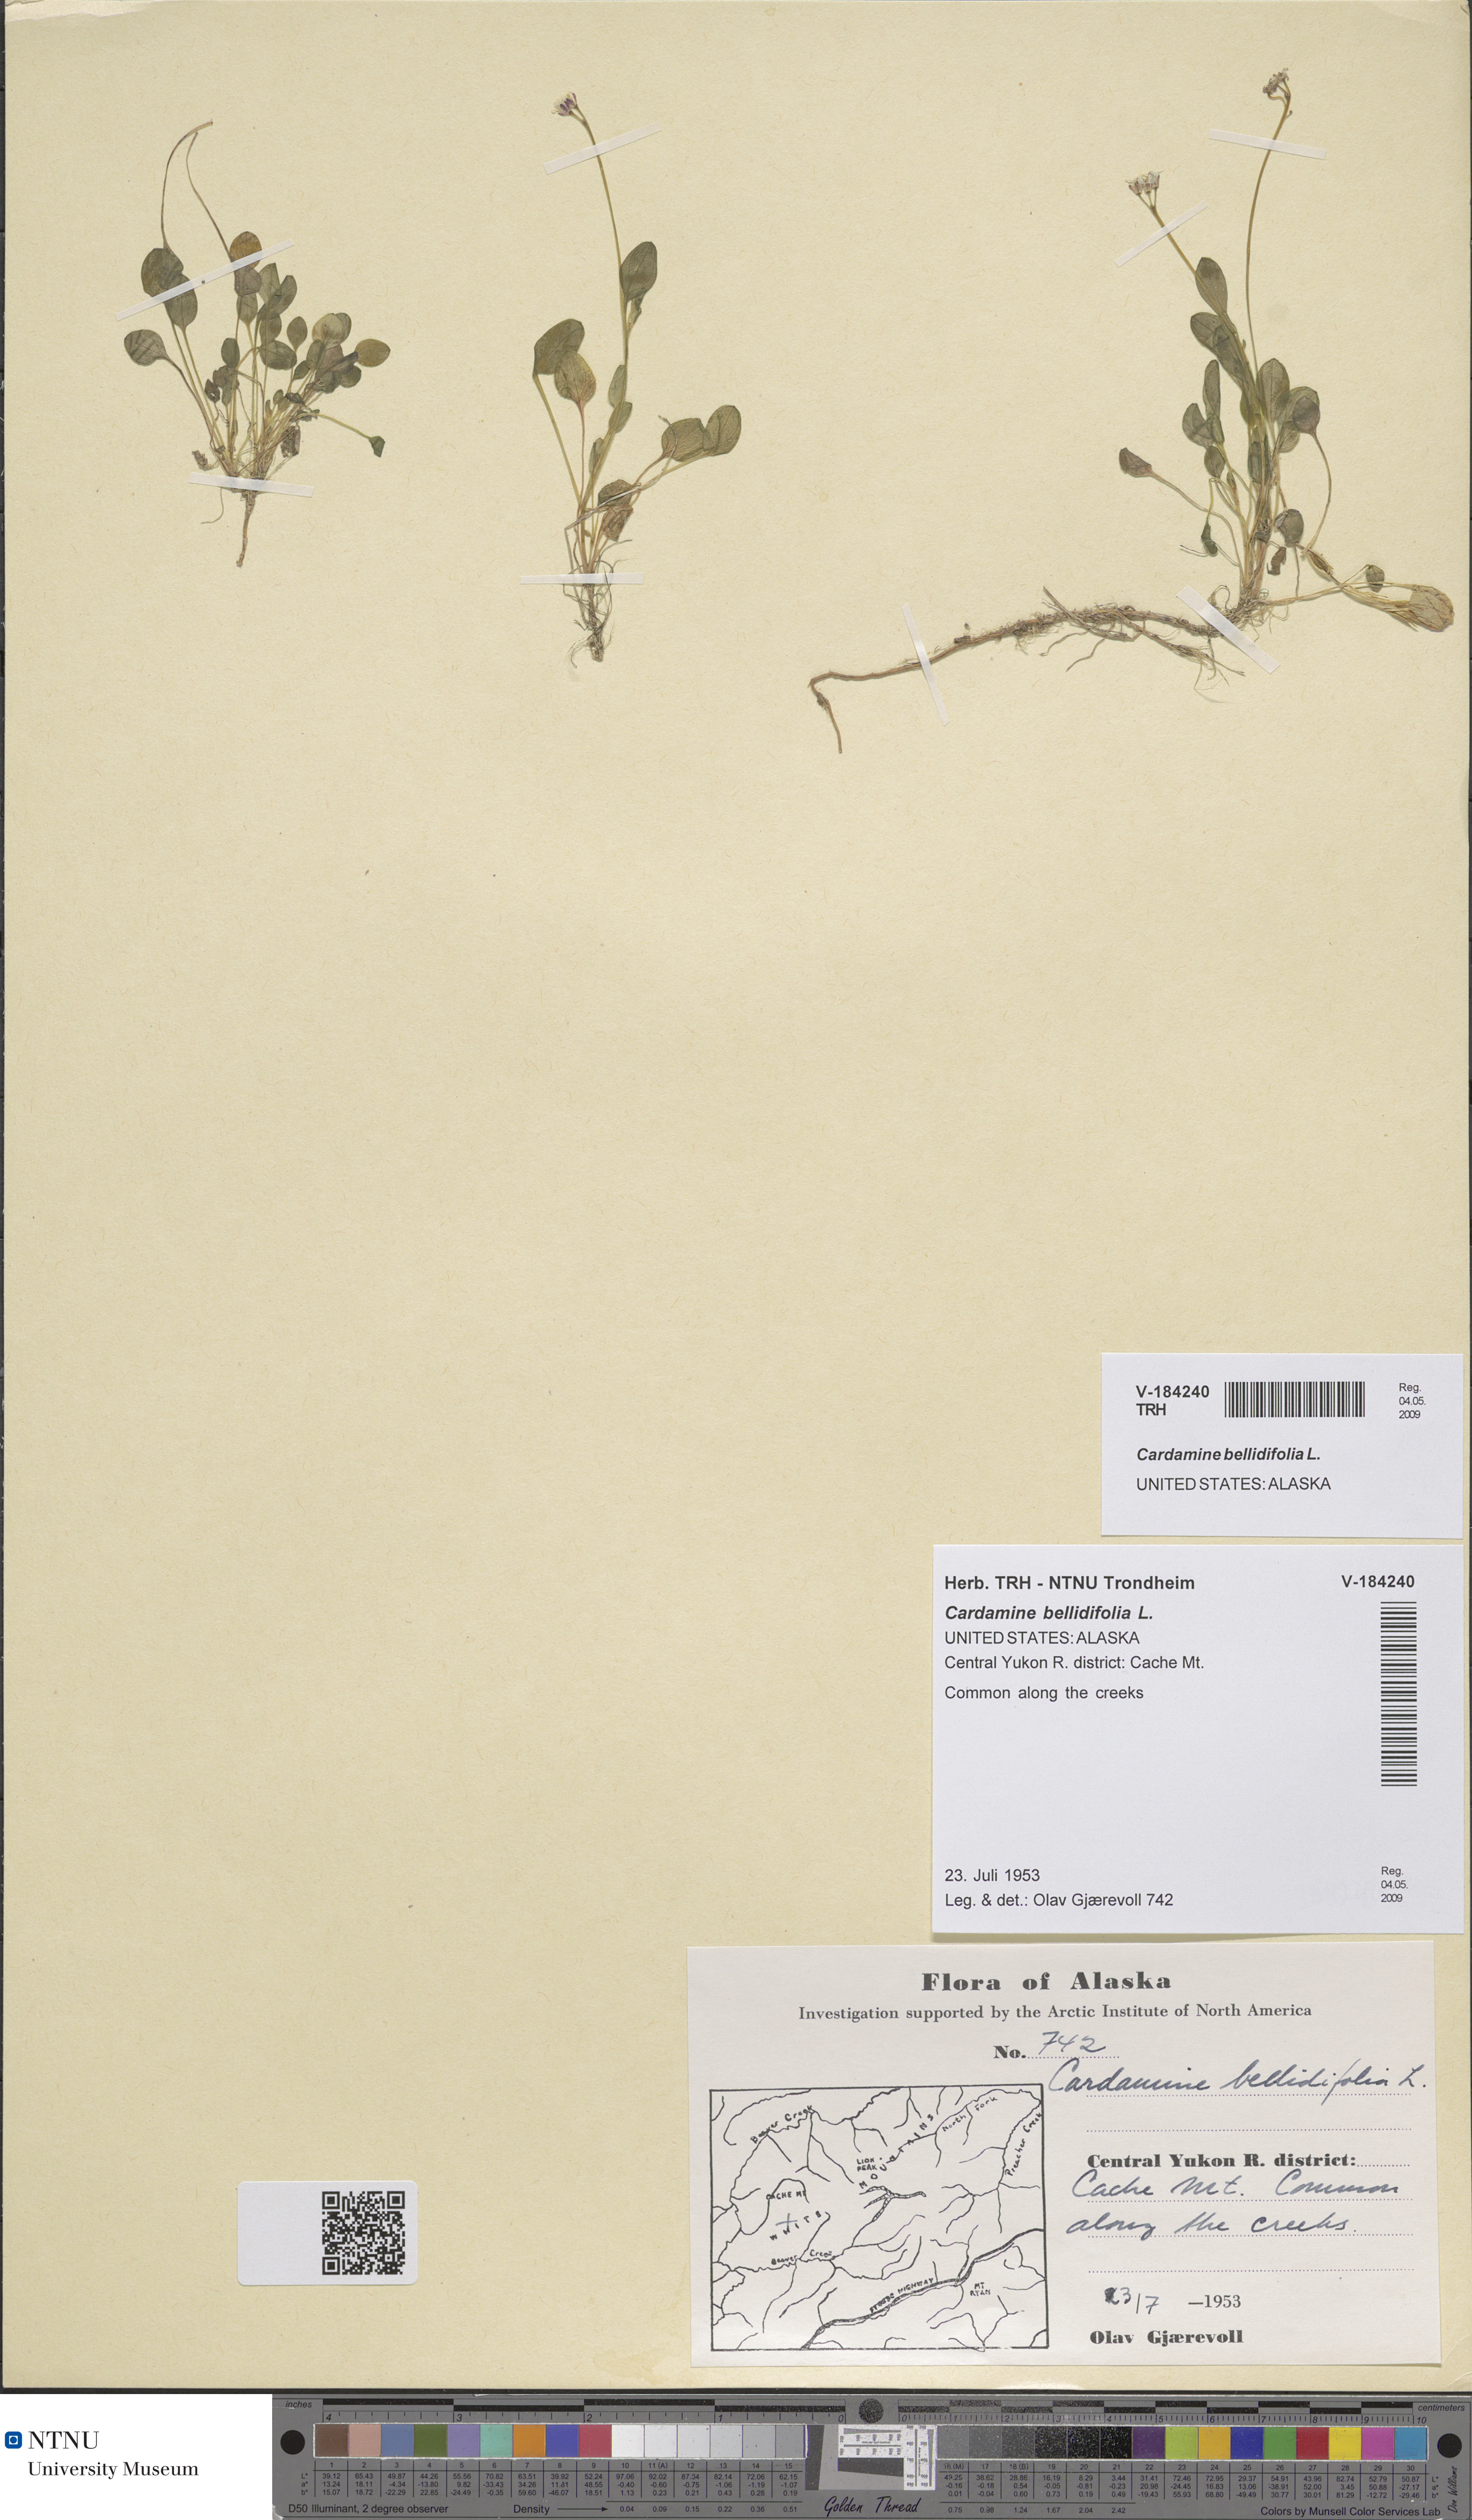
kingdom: Plantae
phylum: Tracheophyta
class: Magnoliopsida
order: Brassicales
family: Brassicaceae
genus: Cardamine
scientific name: Cardamine bellidifolia
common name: Alpine bittercress
